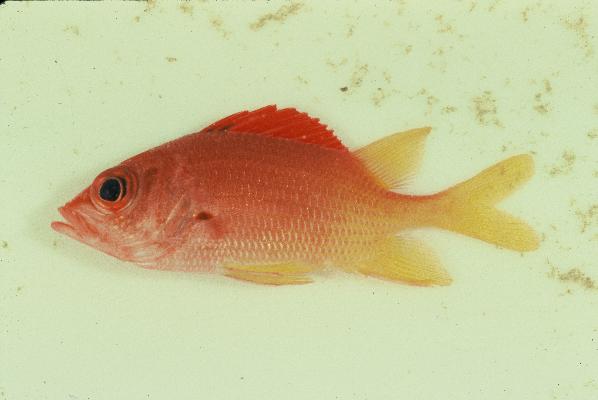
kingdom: Animalia
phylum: Chordata
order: Beryciformes
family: Holocentridae
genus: Sargocentron
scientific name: Sargocentron spiniferum
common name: Giant squirrelfish
